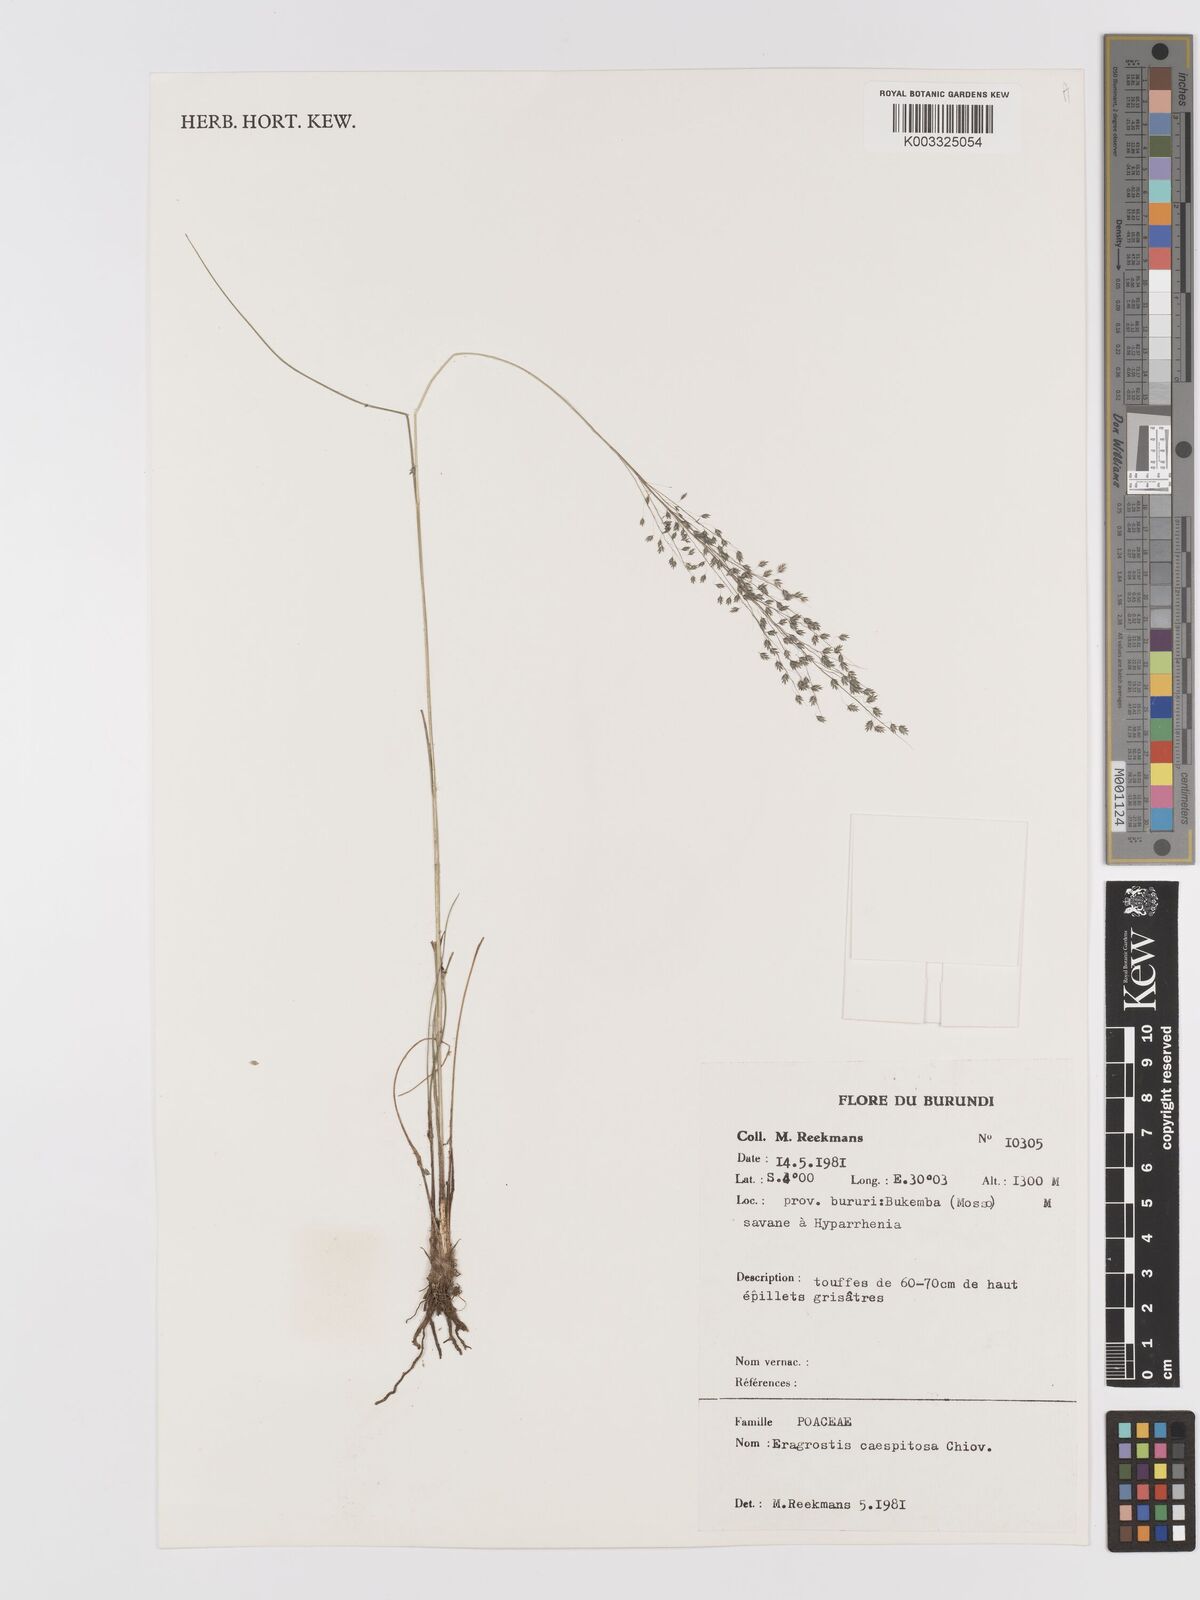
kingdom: Plantae
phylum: Tracheophyta
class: Liliopsida
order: Poales
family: Poaceae
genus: Eragrostis
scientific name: Eragrostis caespitosa
